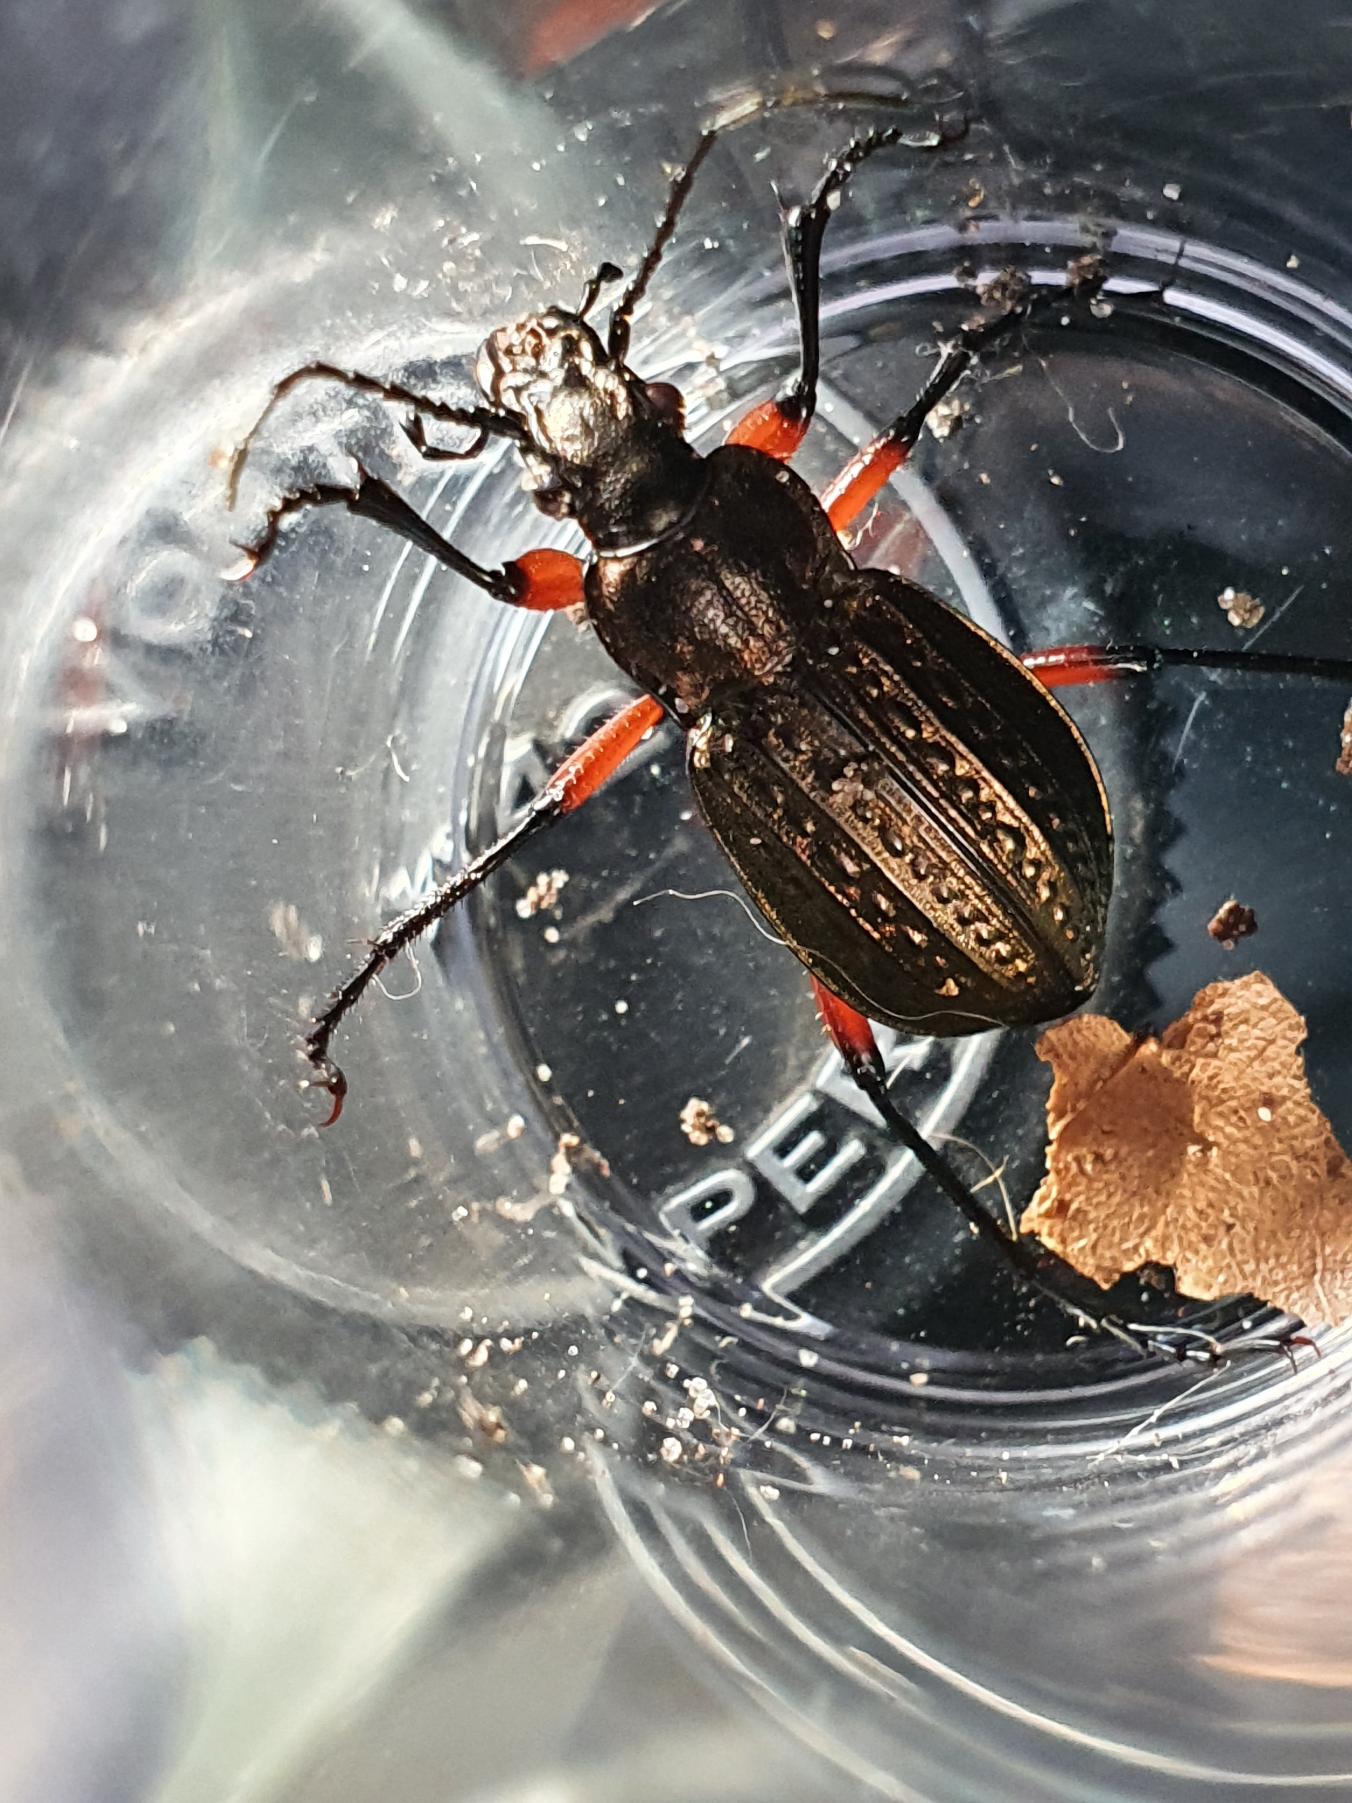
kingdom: Animalia
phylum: Arthropoda
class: Insecta
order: Coleoptera
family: Carabidae
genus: Carabus
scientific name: Carabus granulatus
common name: Kornet løber
